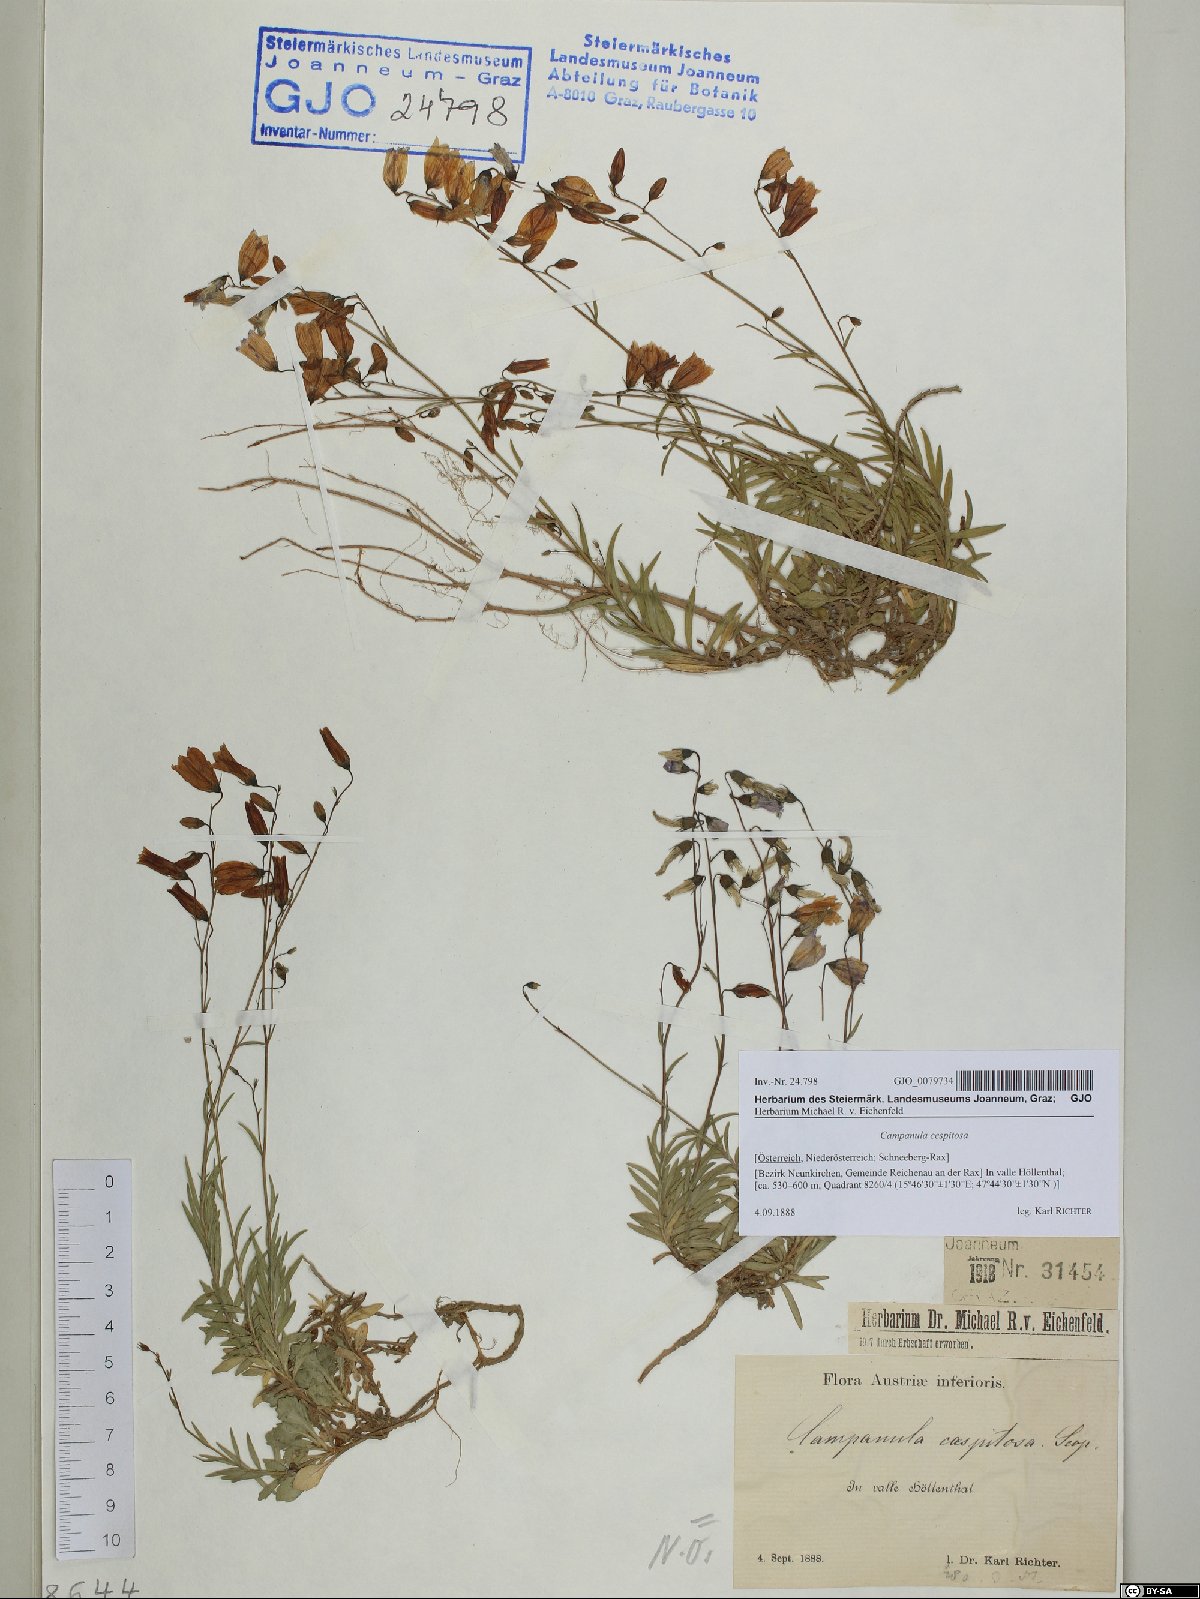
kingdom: Plantae
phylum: Tracheophyta
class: Magnoliopsida
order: Asterales
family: Campanulaceae
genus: Campanula
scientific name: Campanula cespitosa
